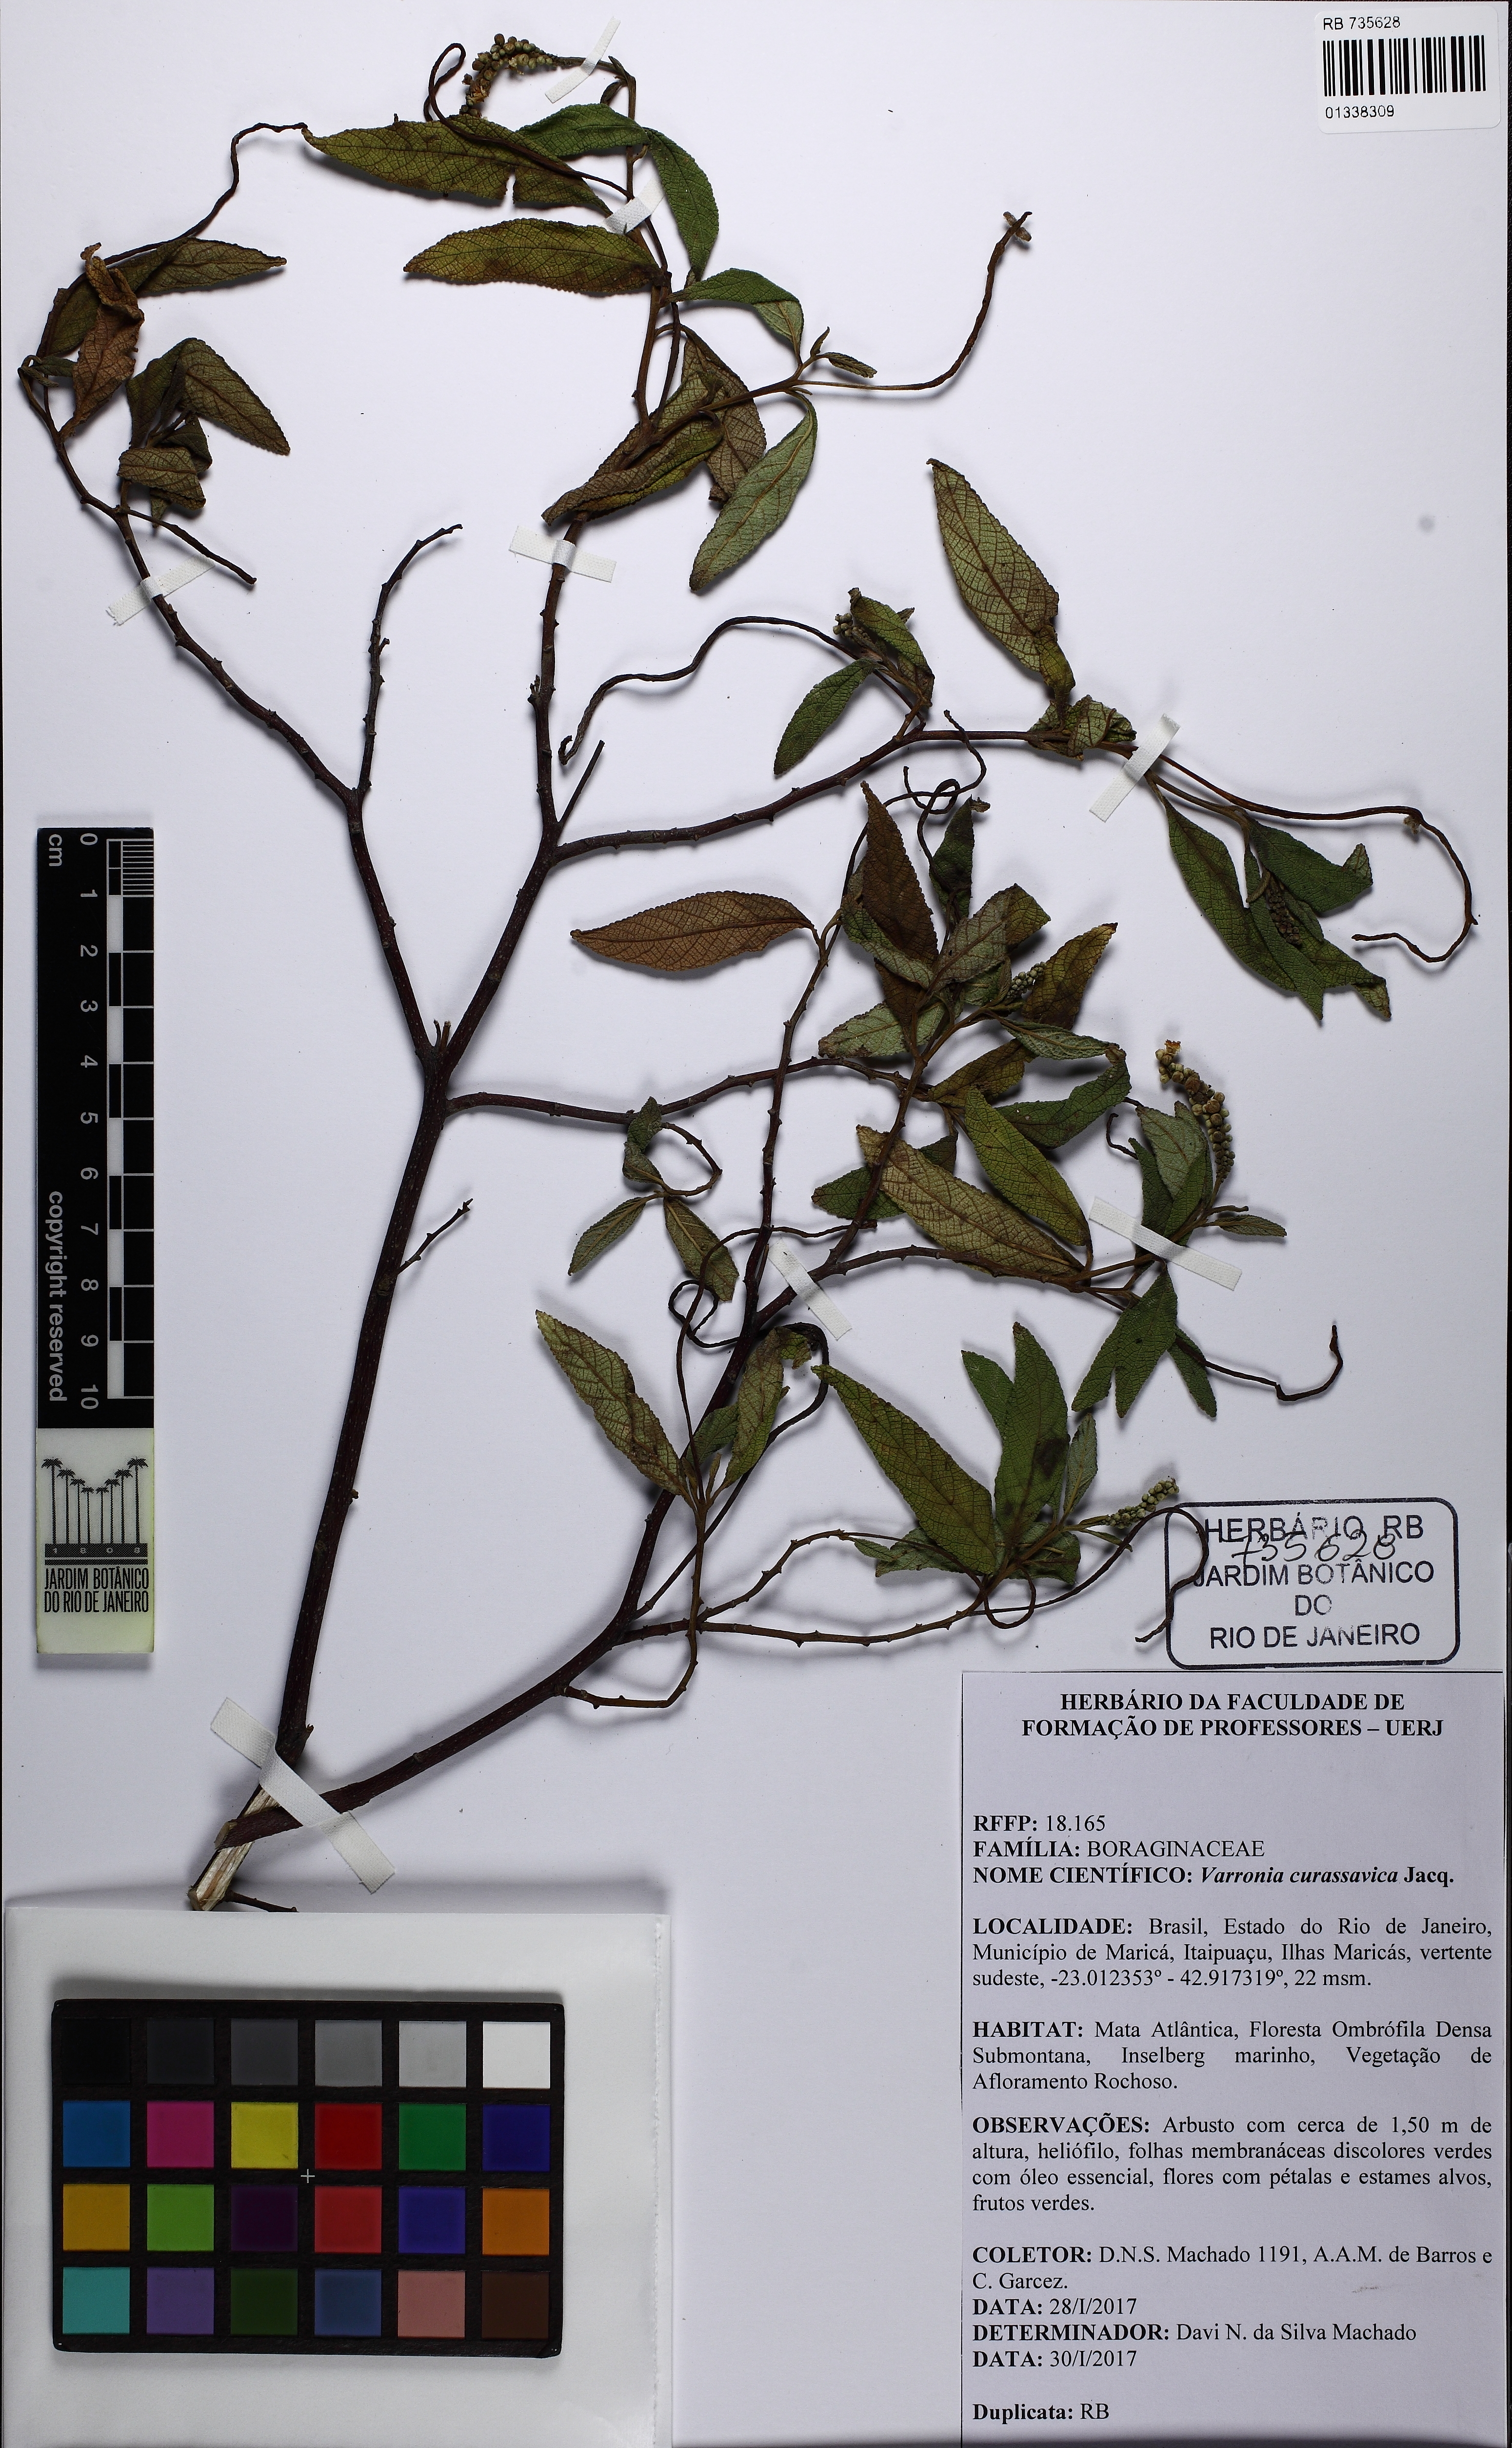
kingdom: Plantae
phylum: Tracheophyta
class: Magnoliopsida
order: Boraginales
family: Cordiaceae
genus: Varronia
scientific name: Varronia curassavica
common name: Black sage
